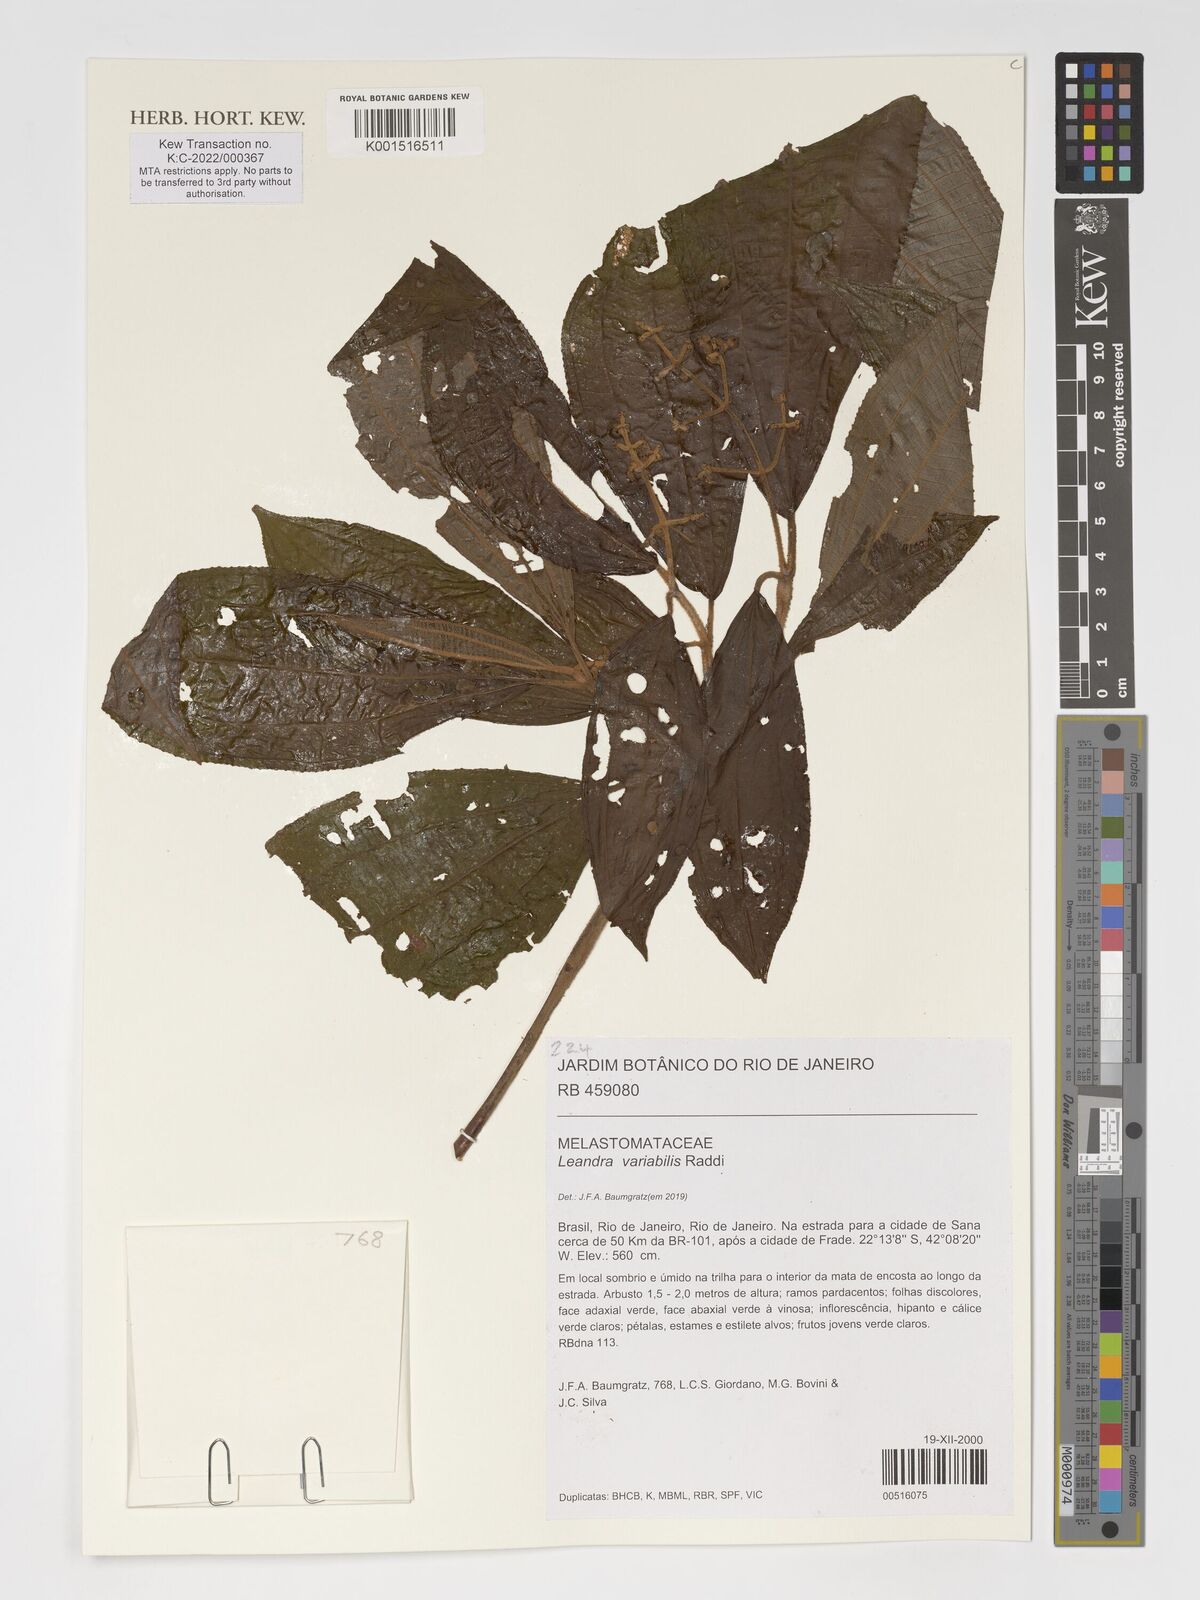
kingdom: Plantae
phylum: Tracheophyta
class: Magnoliopsida
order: Myrtales
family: Melastomataceae
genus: Miconia
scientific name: Miconia dasytricha
